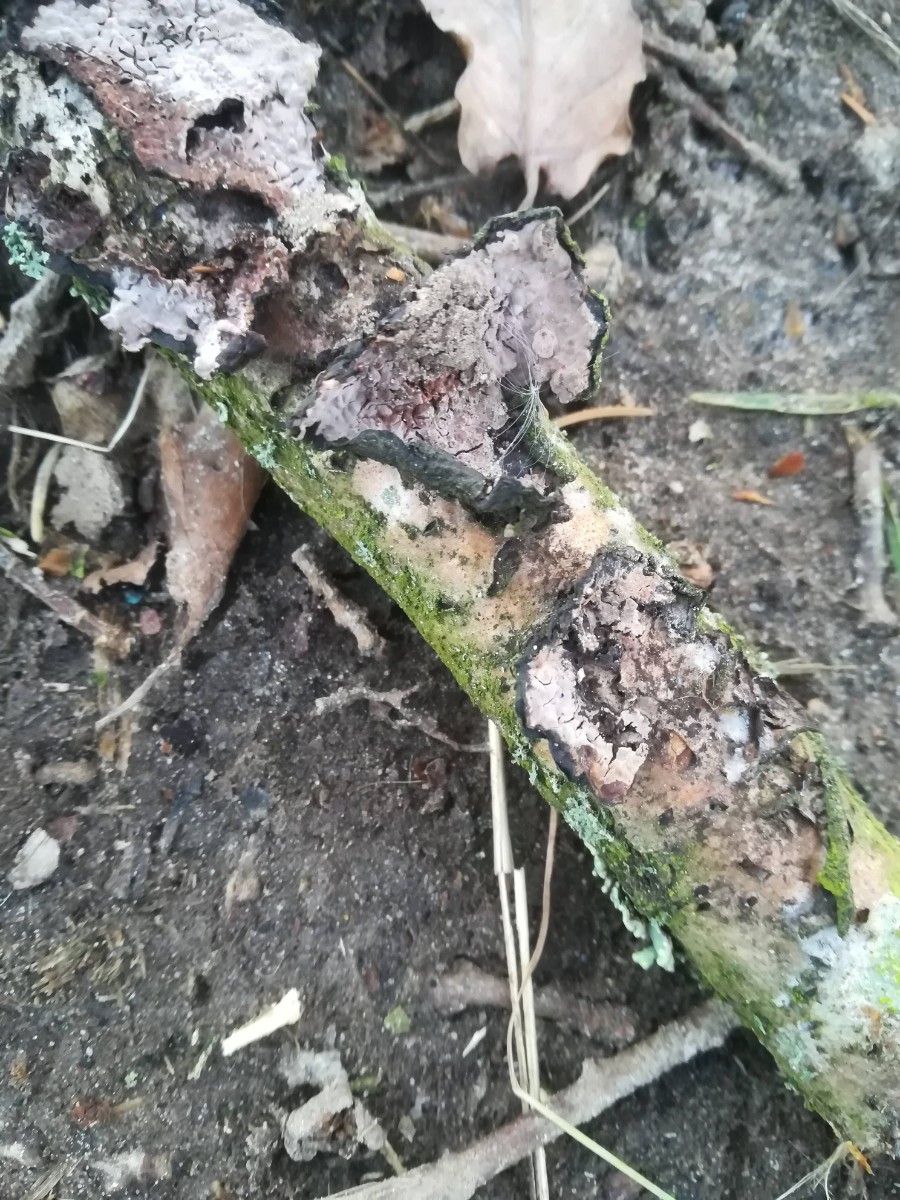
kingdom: Fungi
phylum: Basidiomycota
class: Agaricomycetes
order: Russulales
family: Peniophoraceae
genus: Peniophora
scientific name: Peniophora quercina
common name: ege-voksskind
